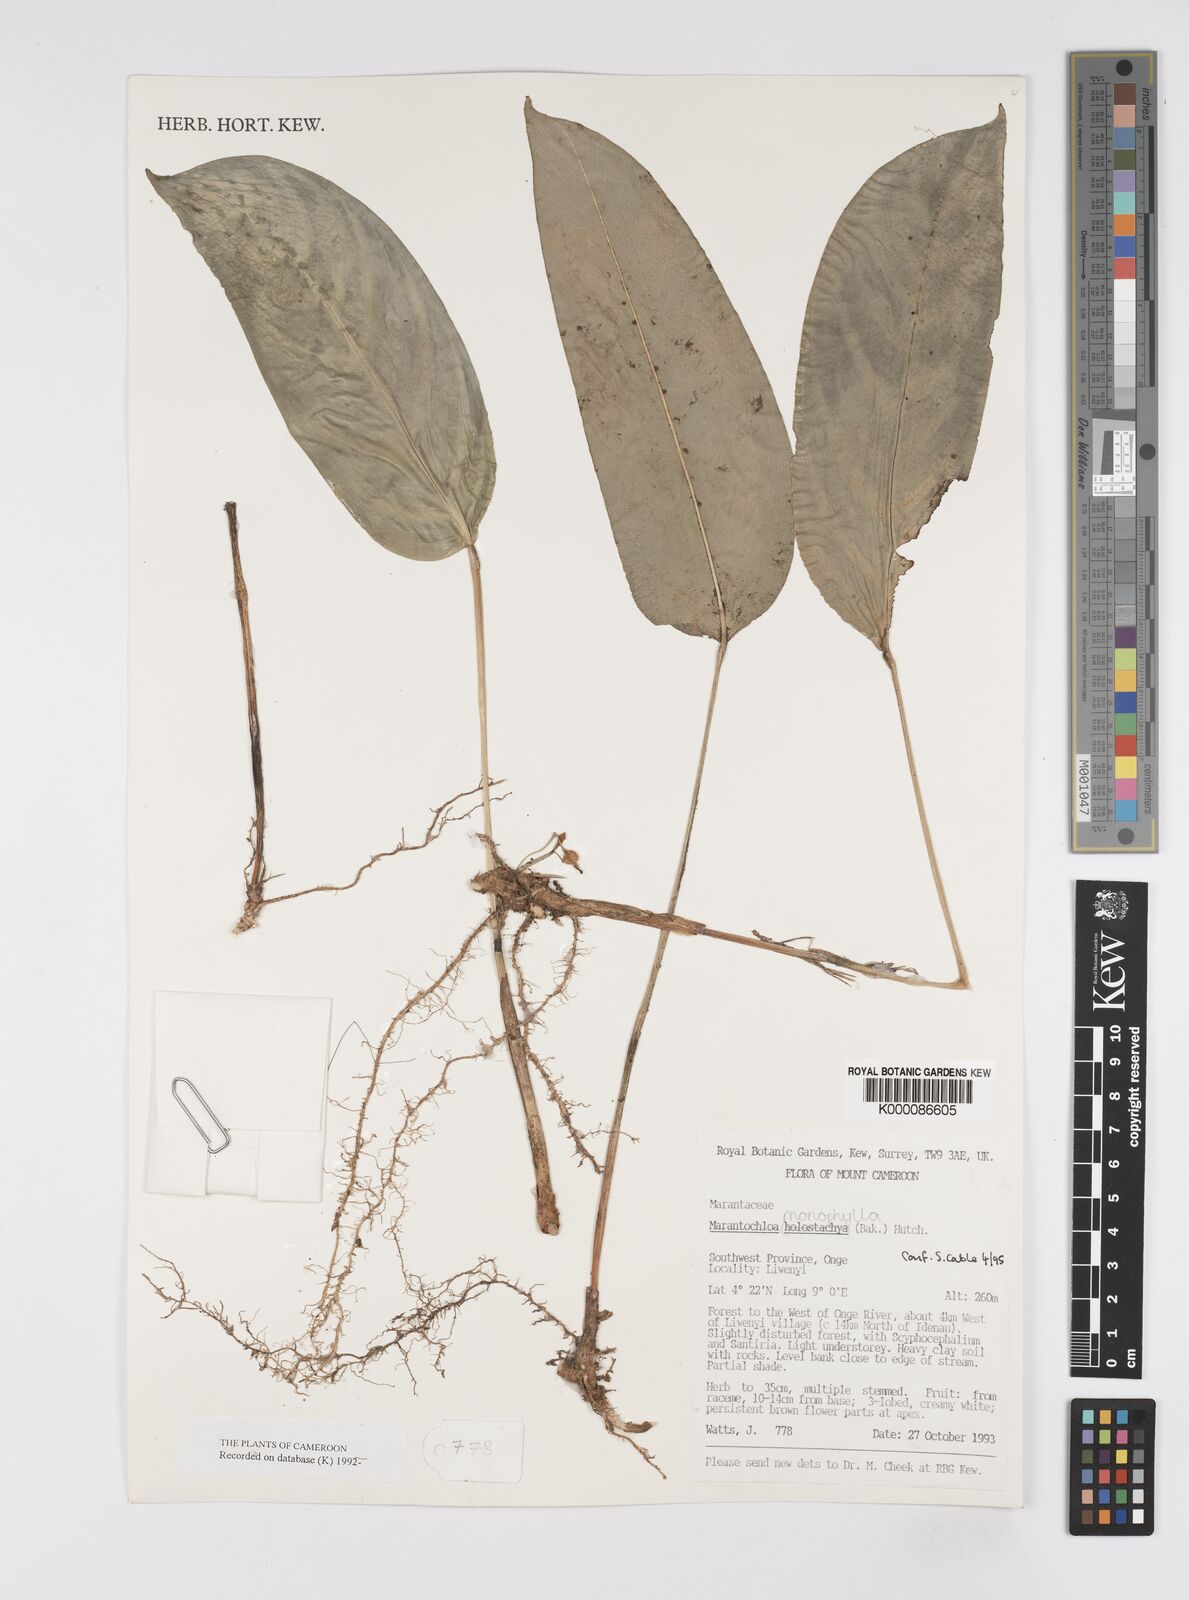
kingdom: Plantae
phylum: Tracheophyta
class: Liliopsida
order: Zingiberales
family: Marantaceae
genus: Marantochloa
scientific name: Marantochloa monophylla
